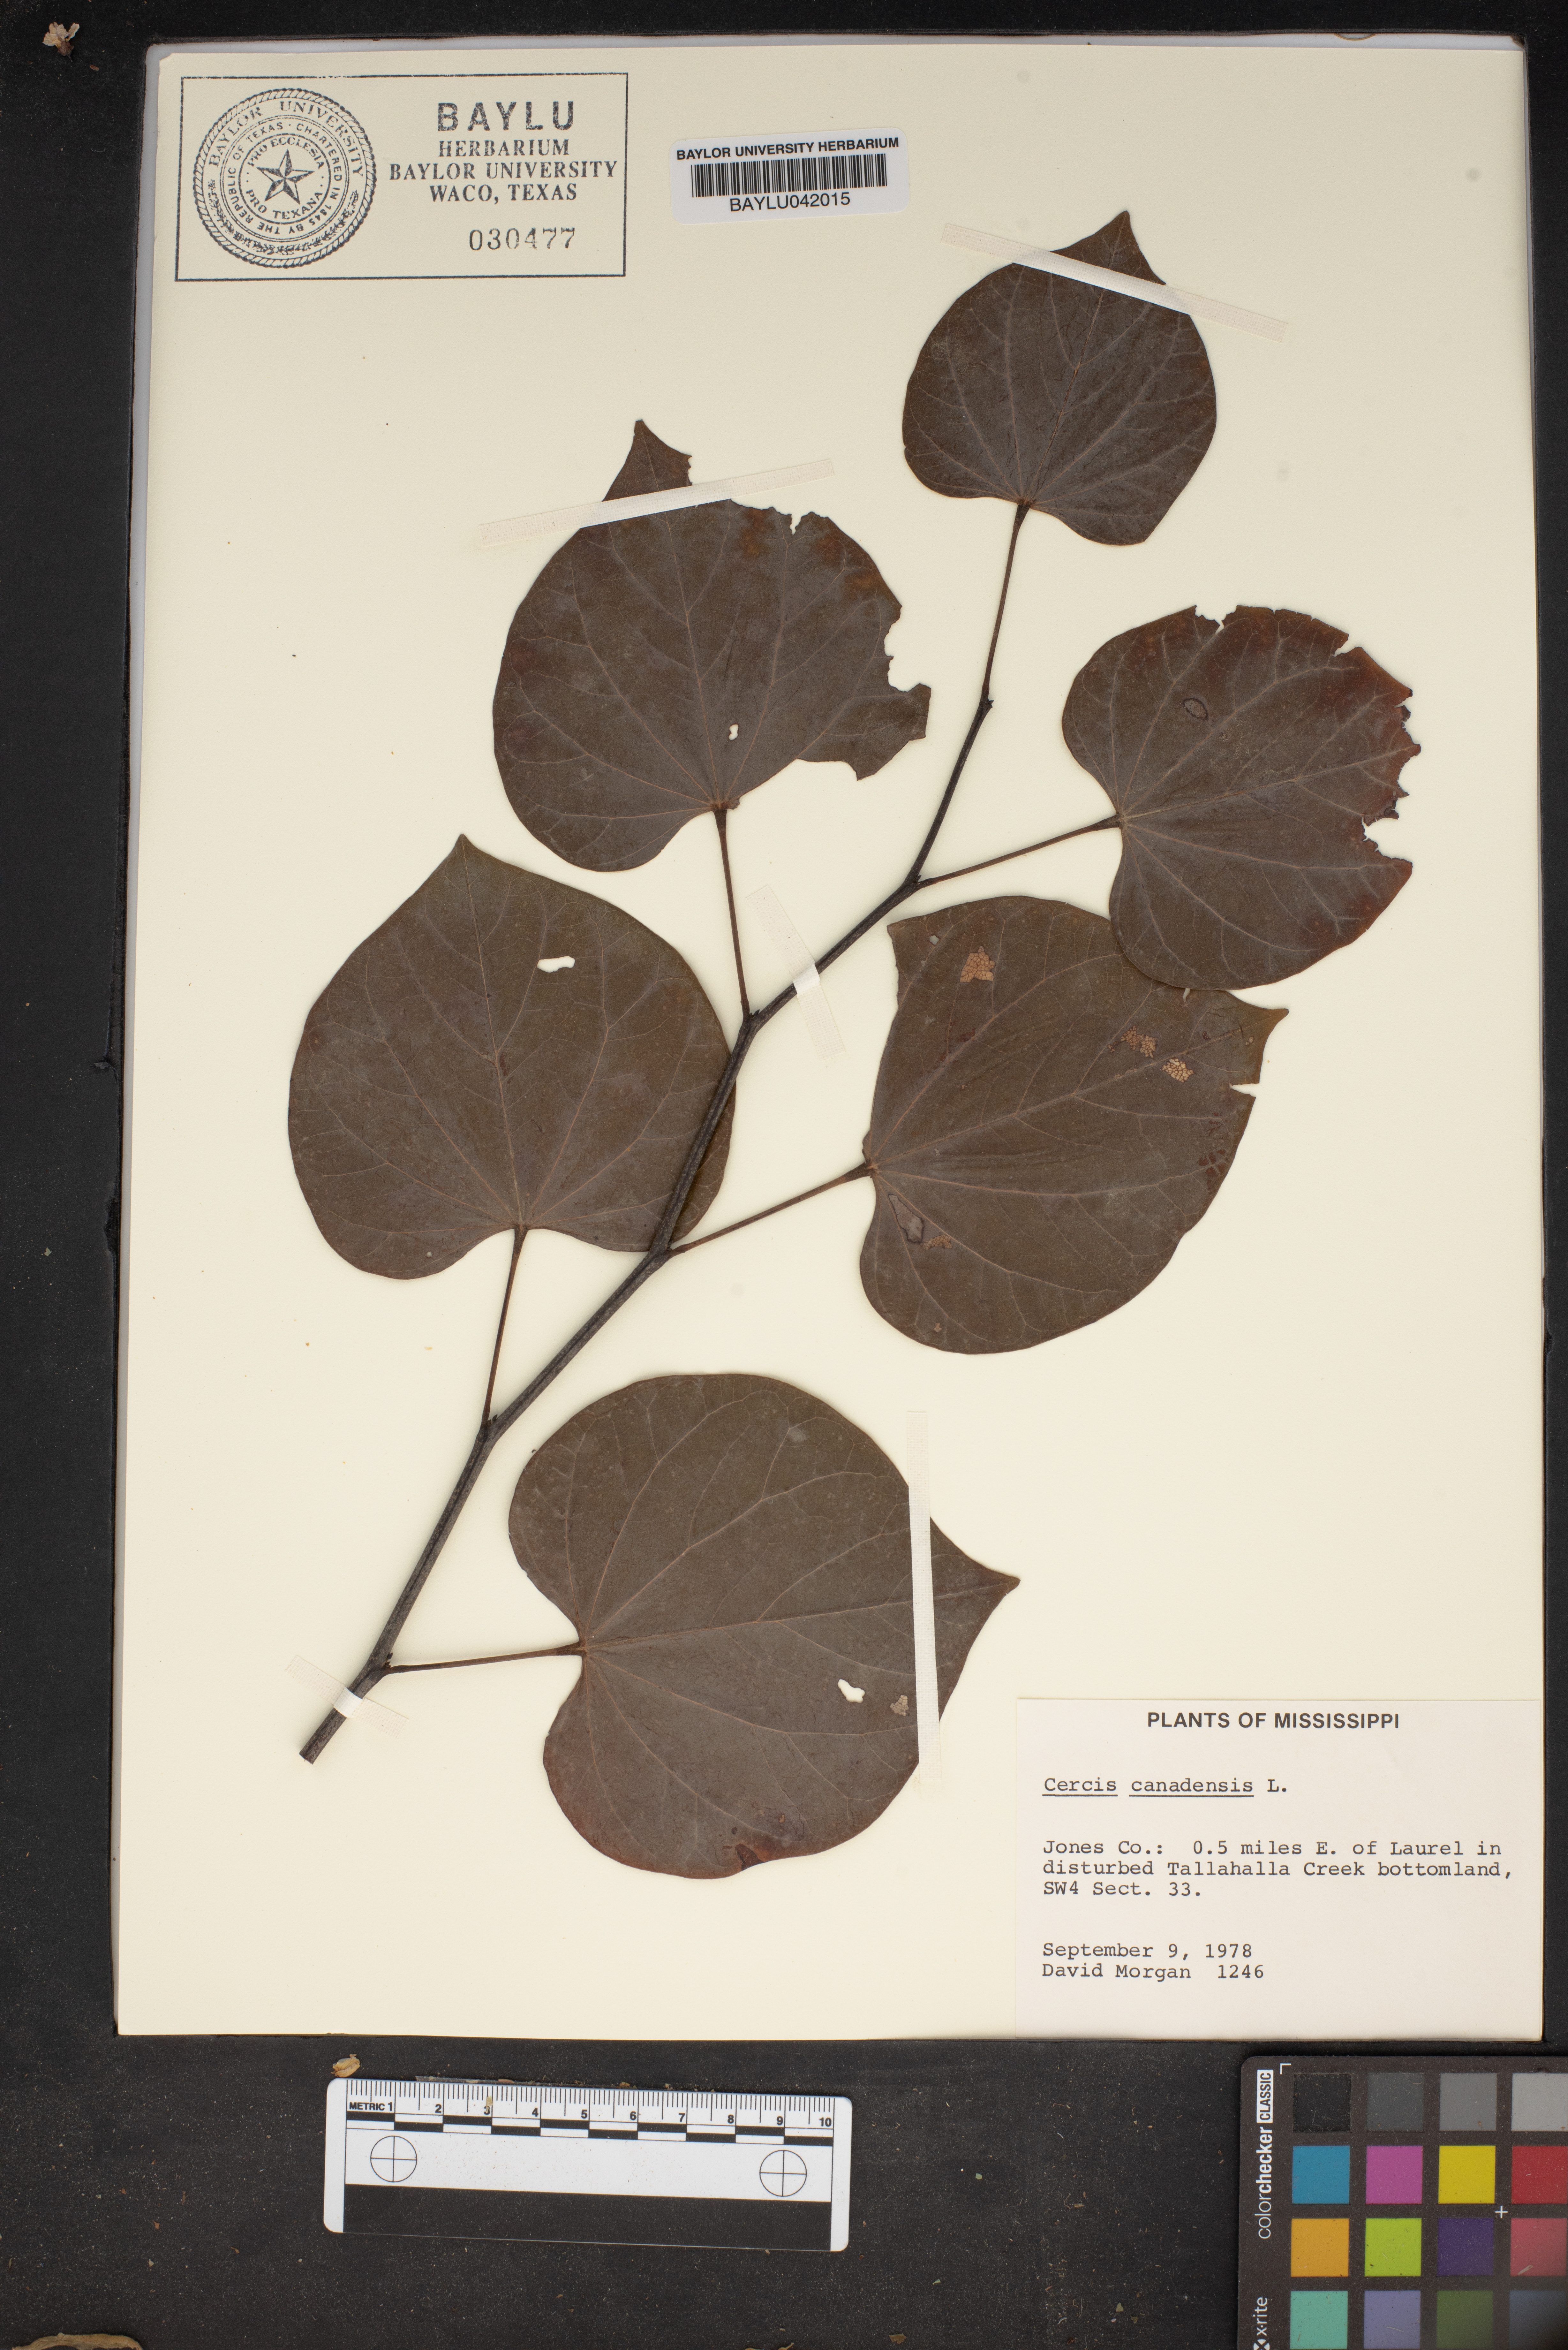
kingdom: Plantae
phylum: Tracheophyta
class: Magnoliopsida
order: Fabales
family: Fabaceae
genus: Cercis
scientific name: Cercis canadensis
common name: Eastern redbud
